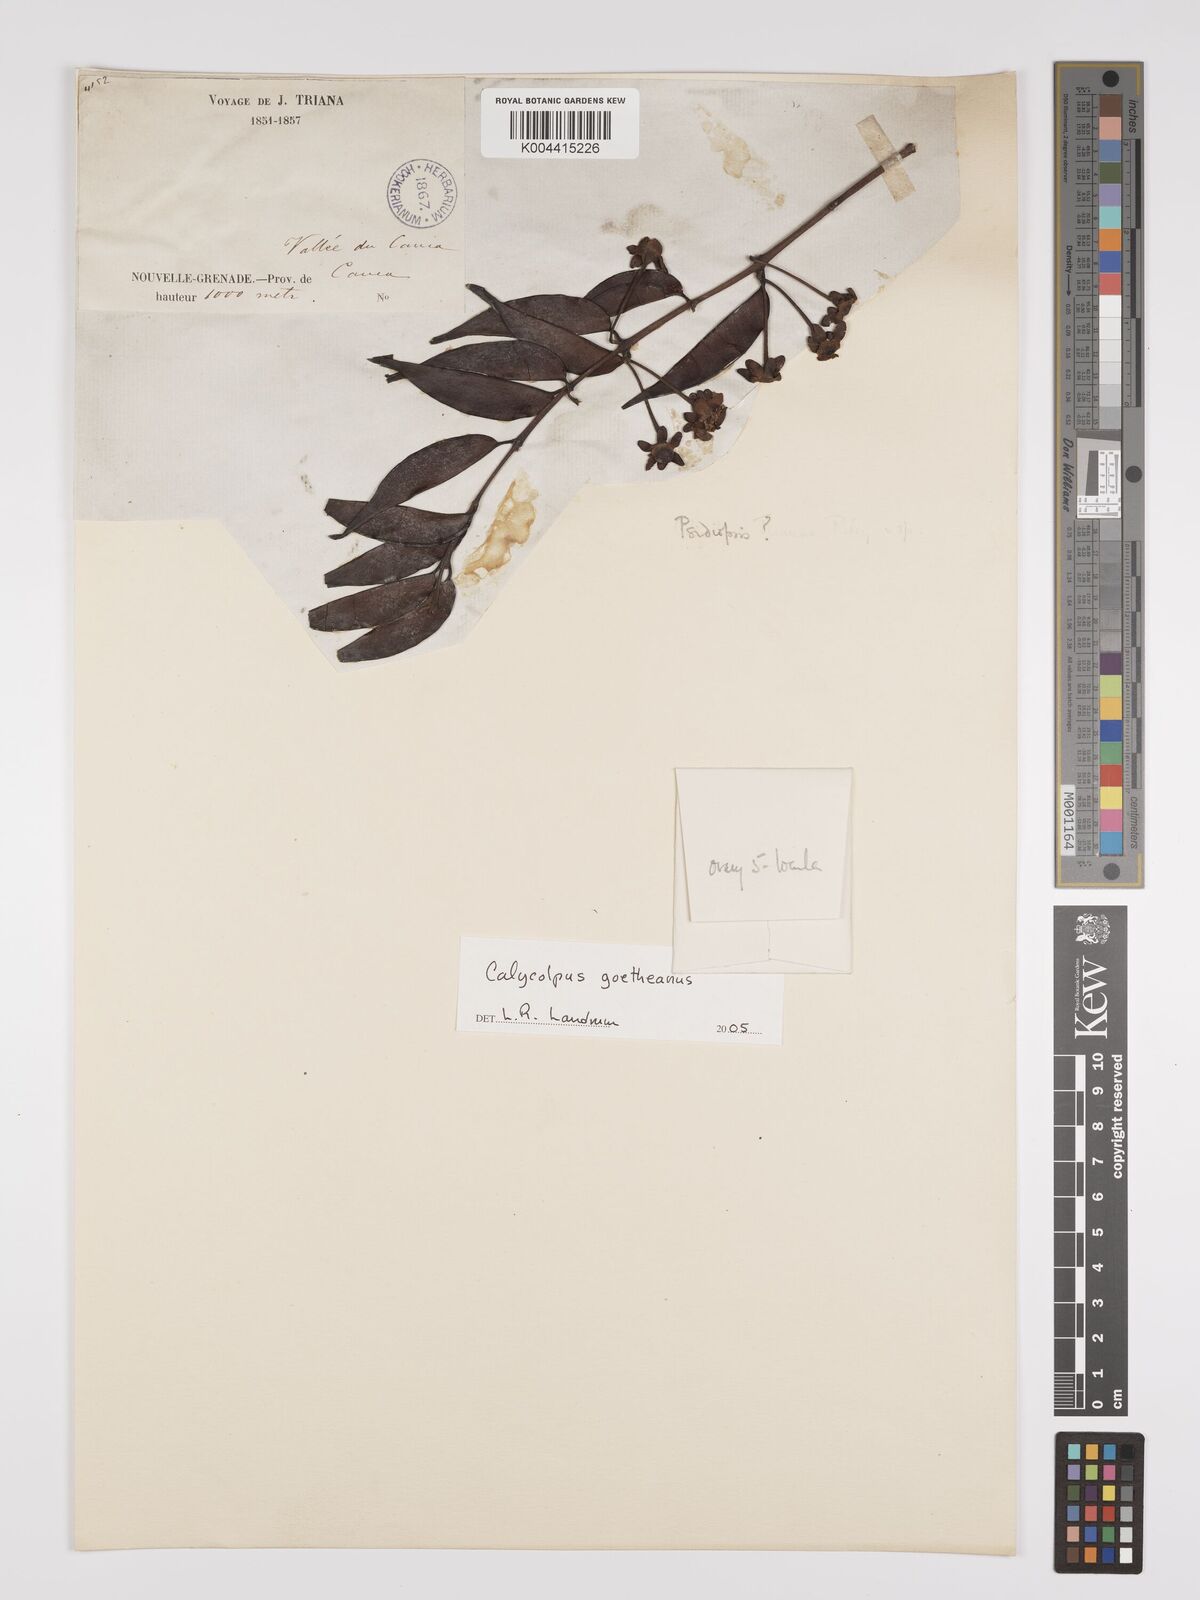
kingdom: Plantae
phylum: Tracheophyta
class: Magnoliopsida
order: Myrtales
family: Myrtaceae
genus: Calycolpus
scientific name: Calycolpus goetheanus
